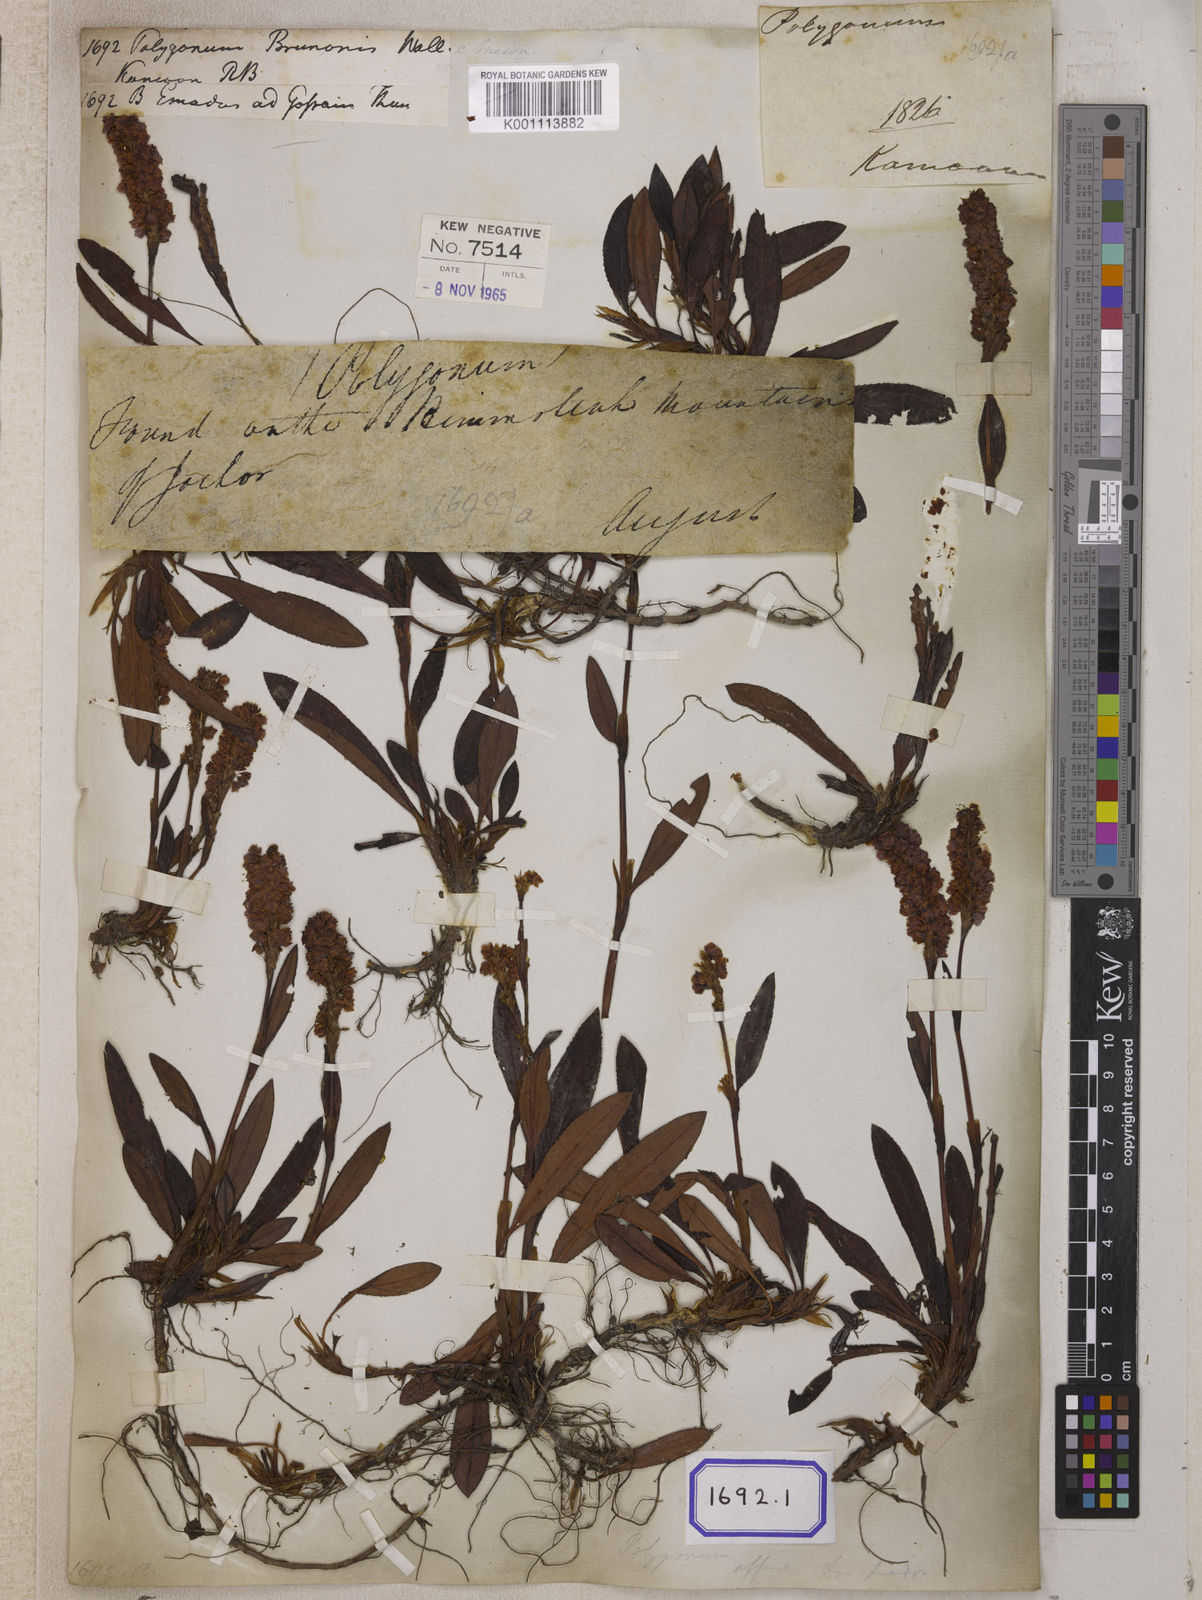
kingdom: Plantae
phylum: Tracheophyta
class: Magnoliopsida
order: Caryophyllales
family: Polygonaceae
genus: Polygonum
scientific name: Polygonum
